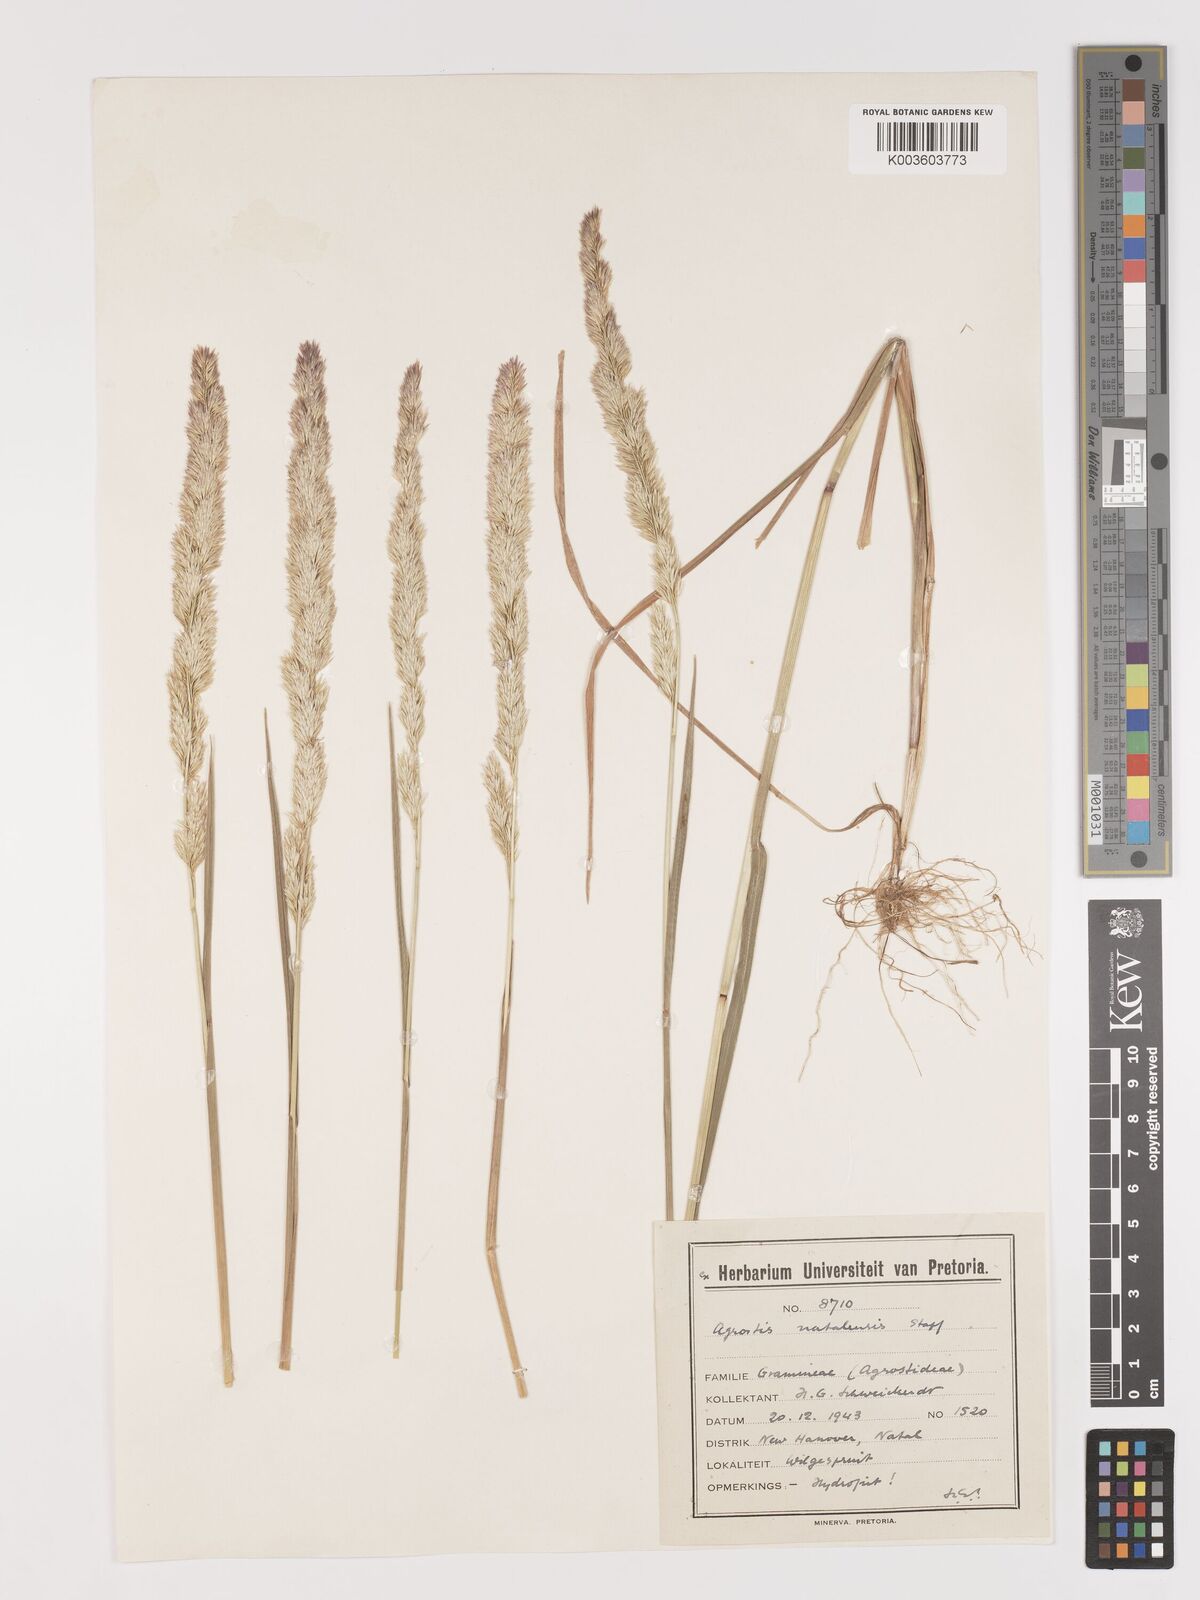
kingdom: Plantae
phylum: Tracheophyta
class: Liliopsida
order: Poales
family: Poaceae
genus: Agrostis
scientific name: Agrostis continuata
